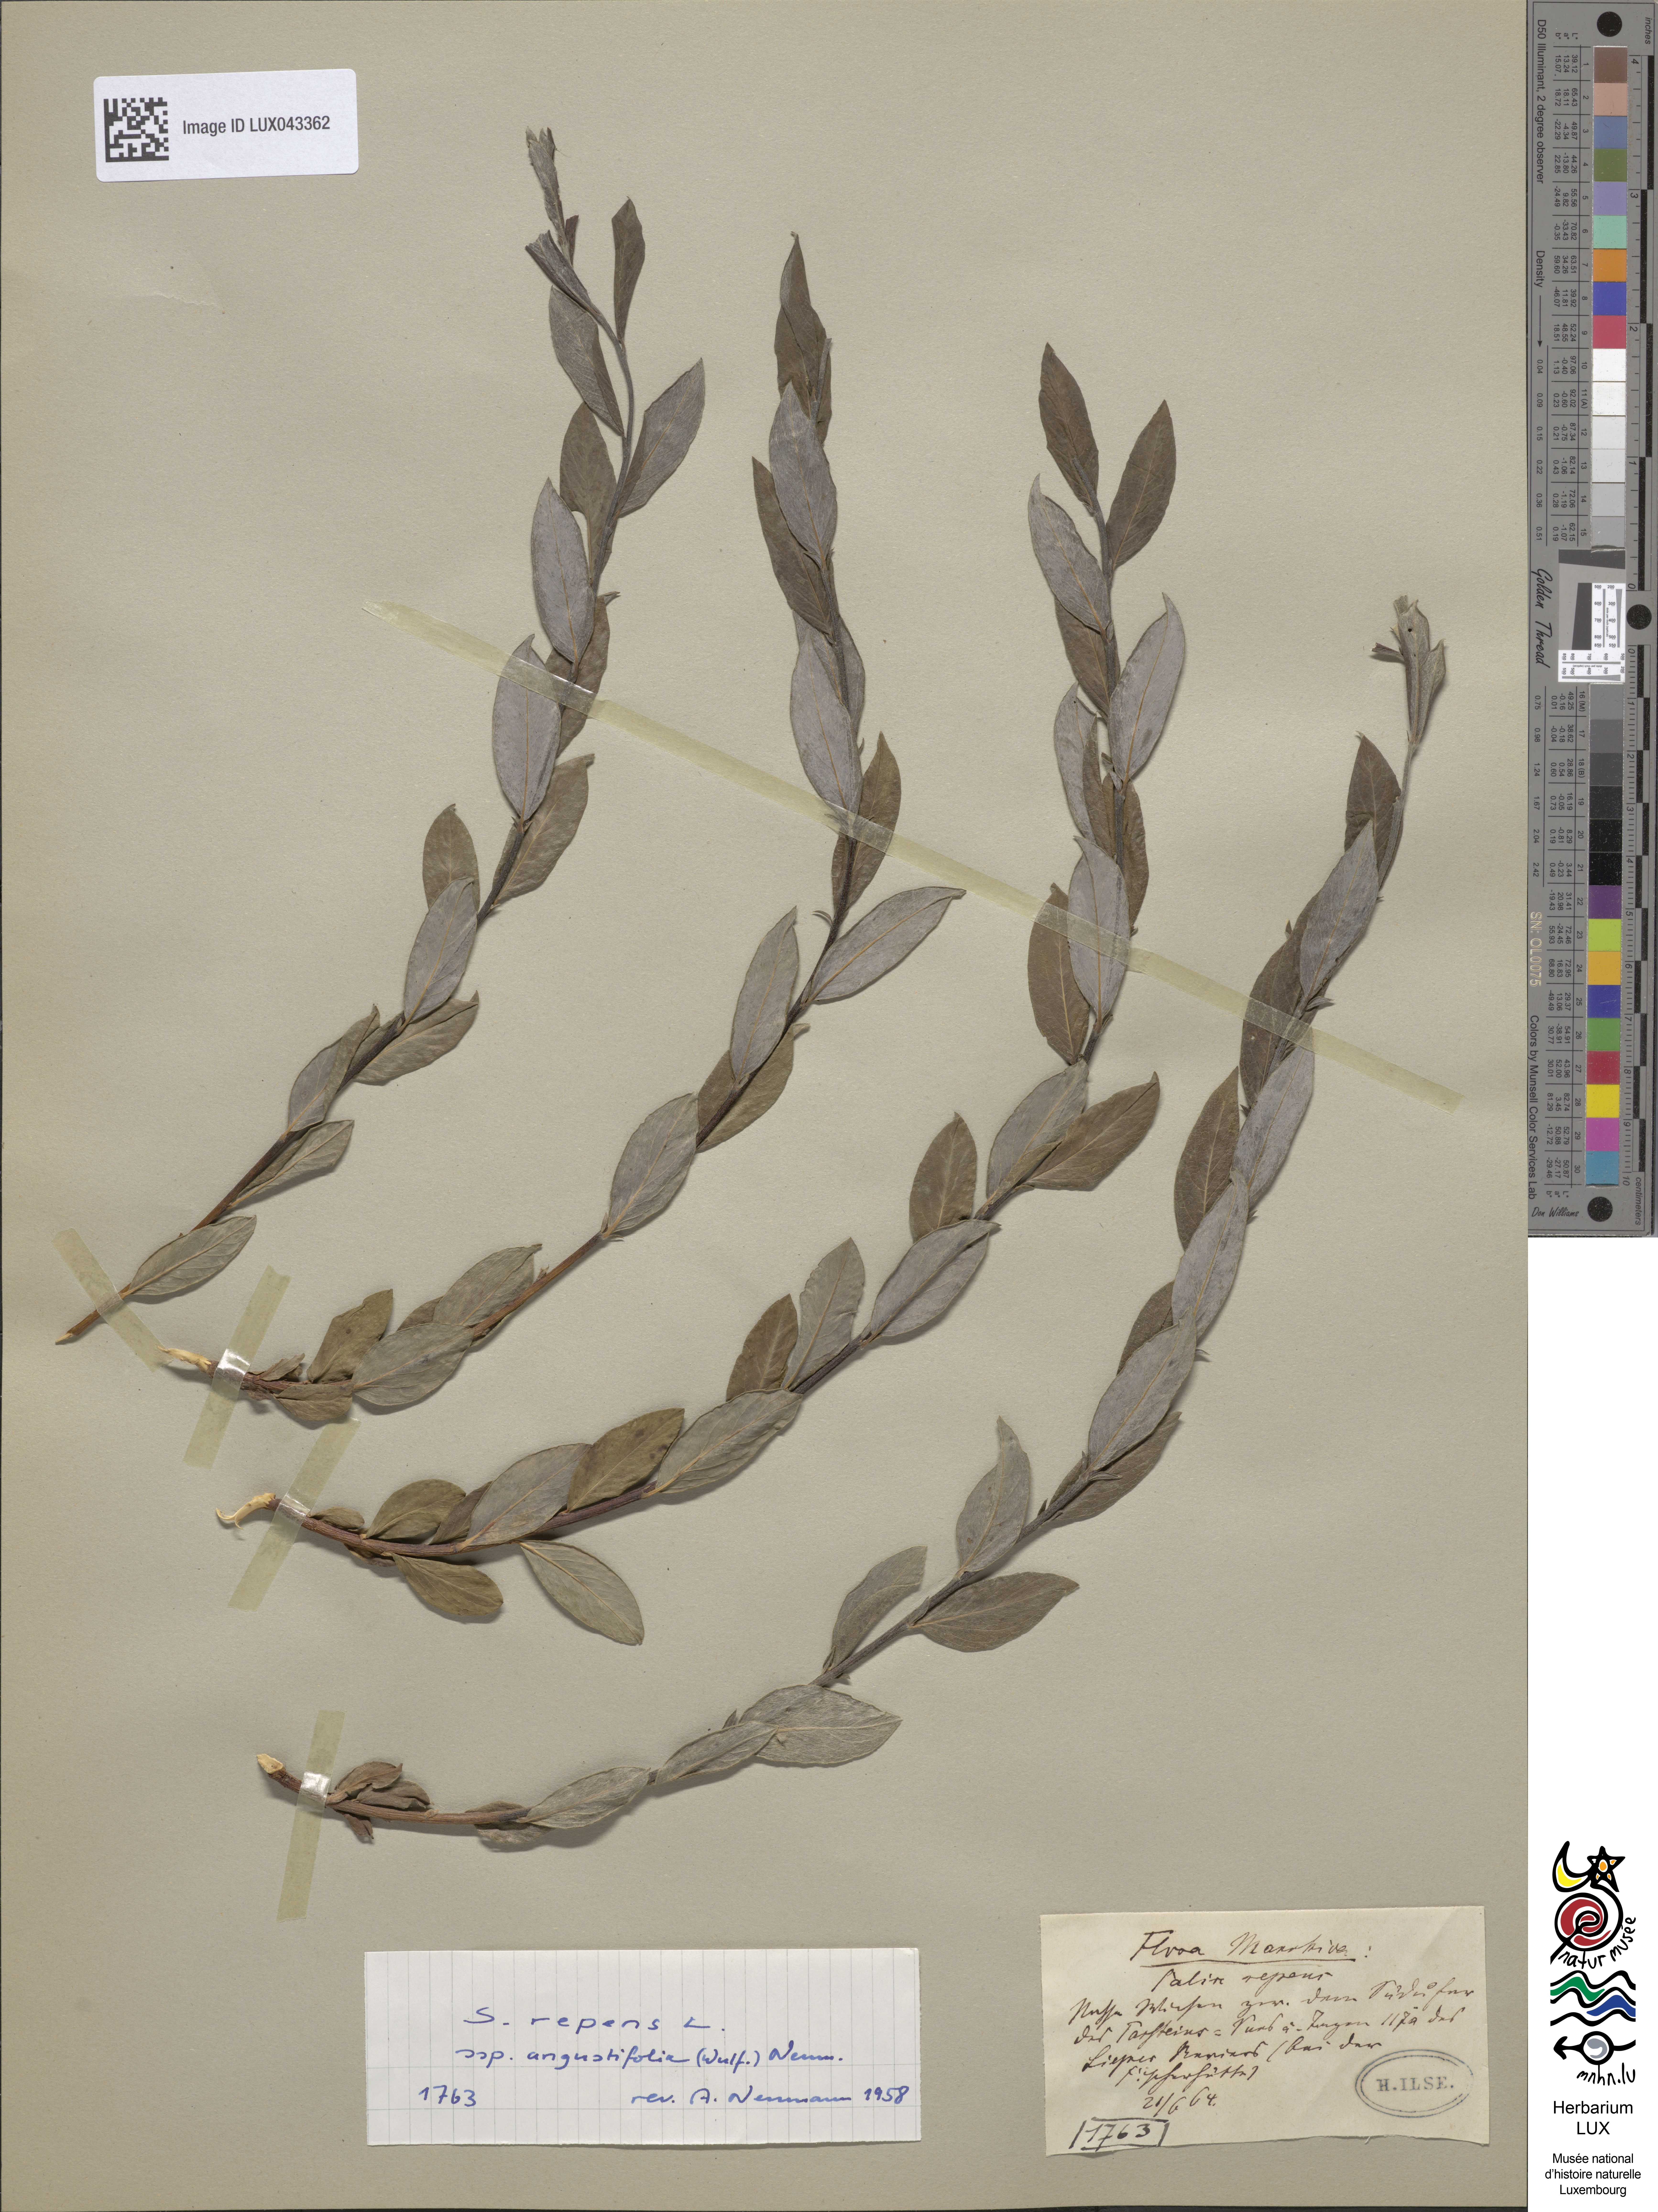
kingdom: Plantae
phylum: Tracheophyta
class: Magnoliopsida
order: Malpighiales
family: Salicaceae
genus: Salix
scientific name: Salix repens
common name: Creeping willow
